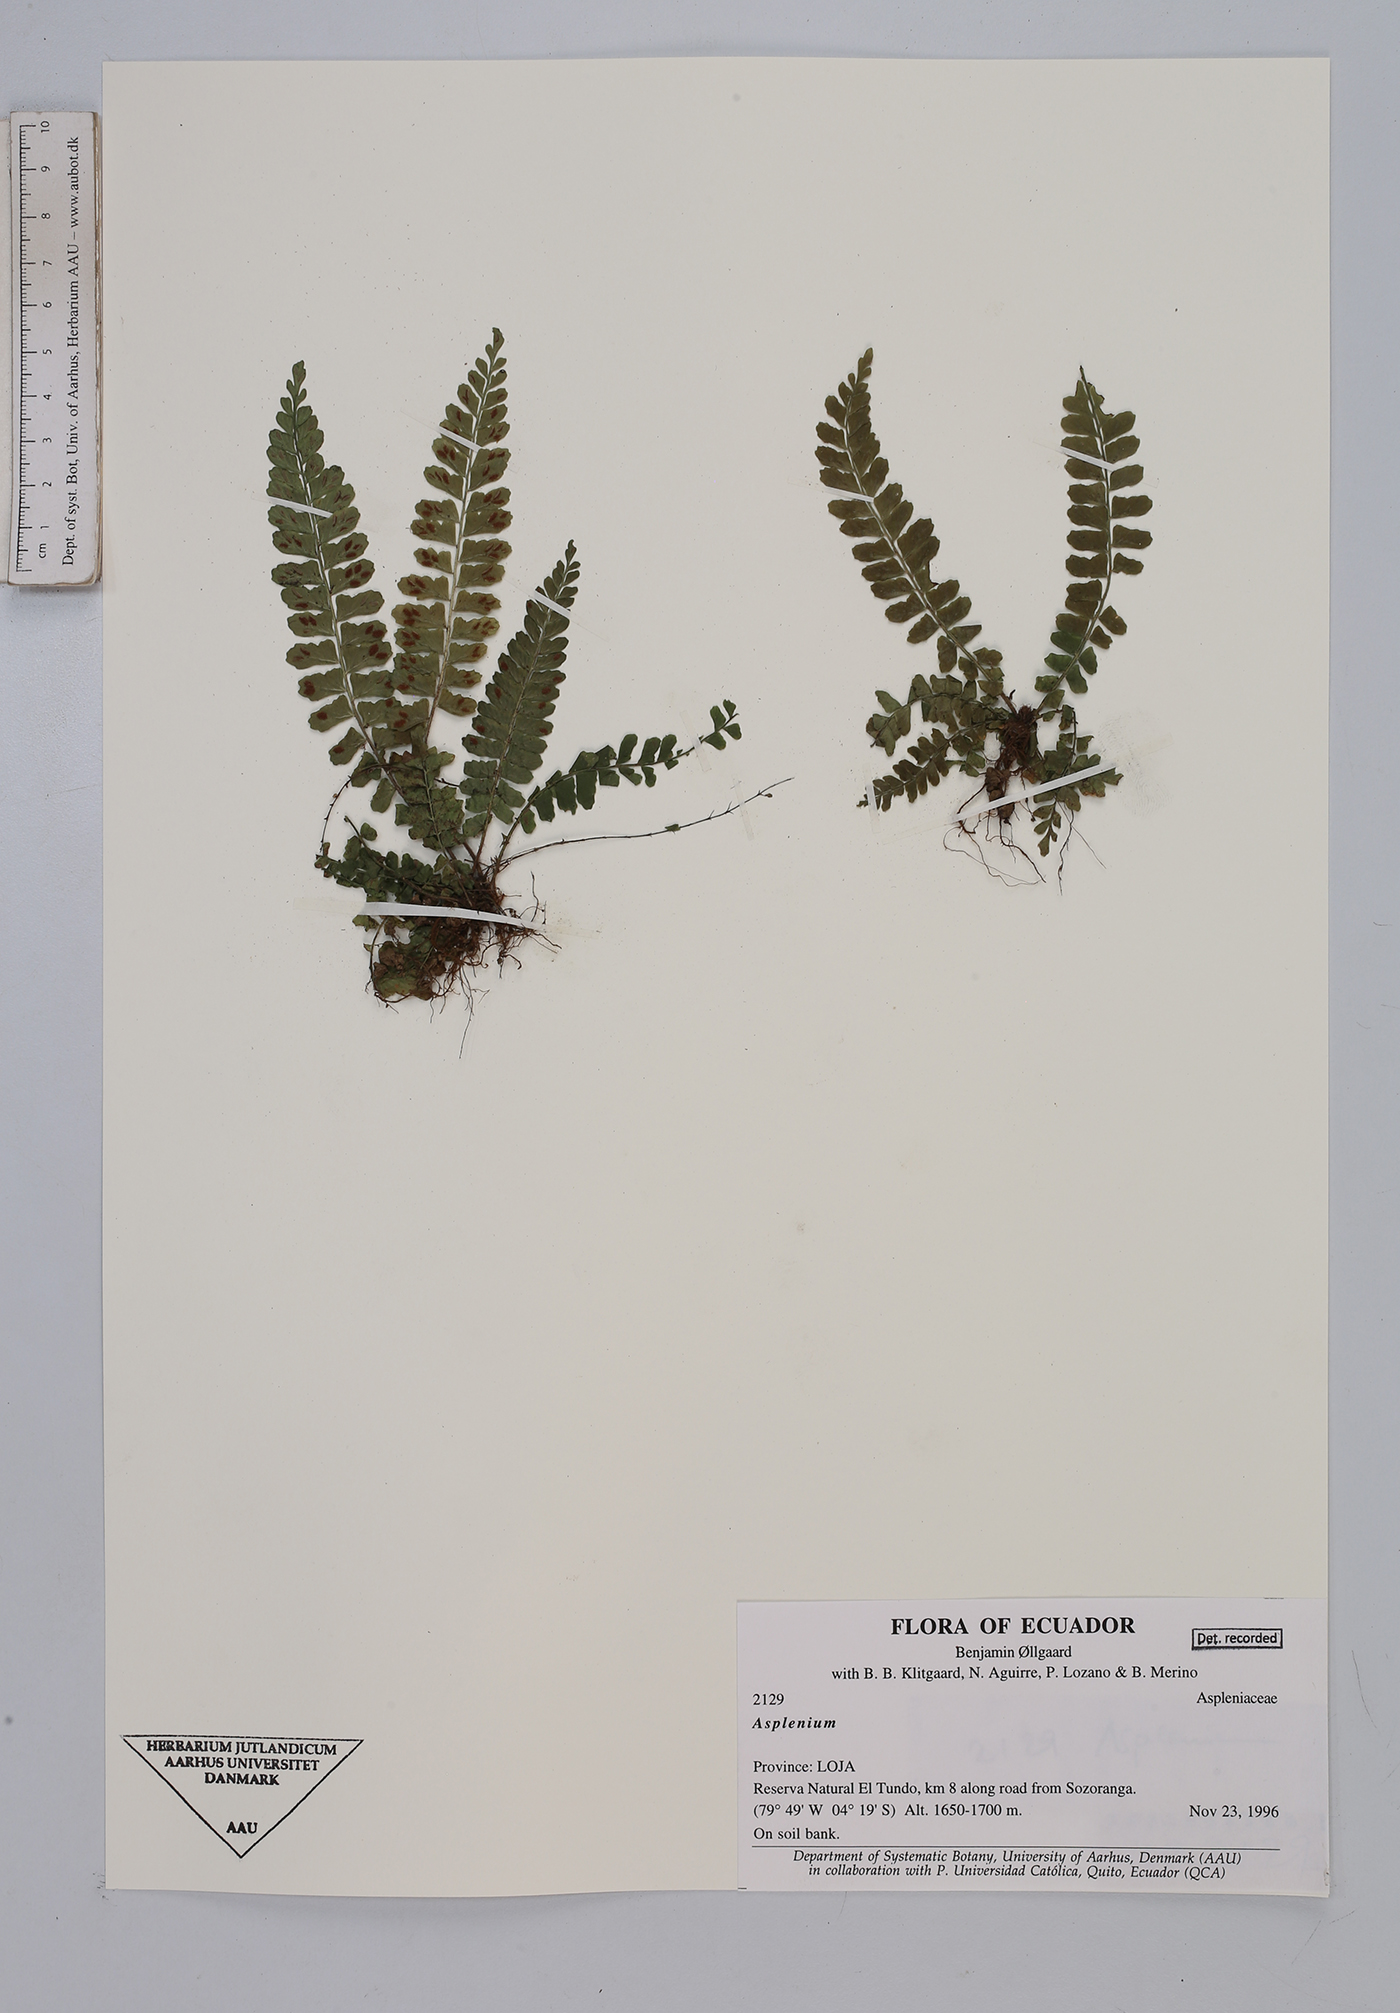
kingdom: Plantae
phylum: Tracheophyta
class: Polypodiopsida
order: Polypodiales
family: Aspleniaceae
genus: Asplenium
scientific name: Asplenium
